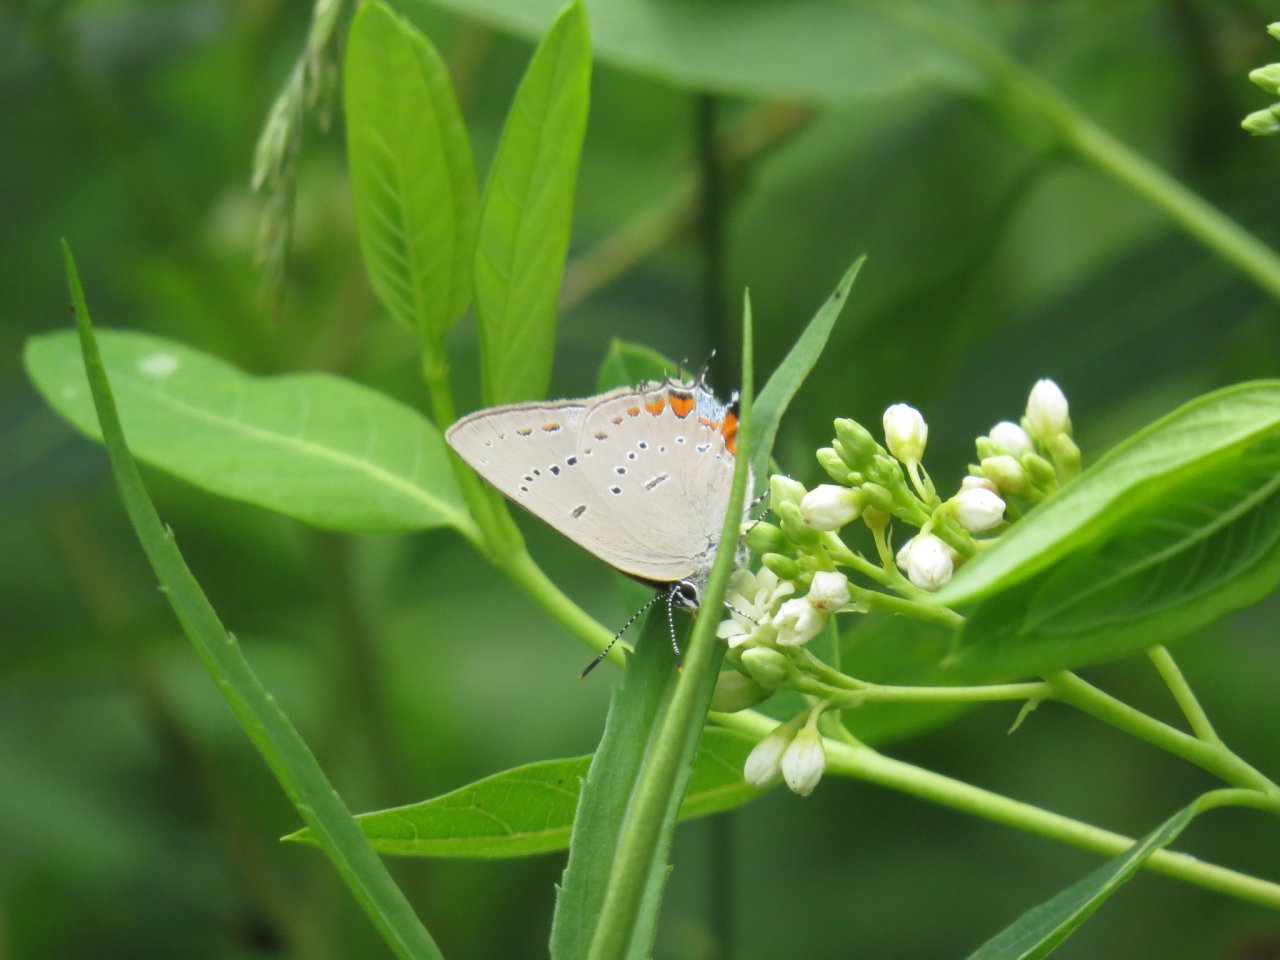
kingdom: Animalia
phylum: Arthropoda
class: Insecta
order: Lepidoptera
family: Lycaenidae
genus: Strymon
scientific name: Strymon acadica
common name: Acadian Hairstreak
